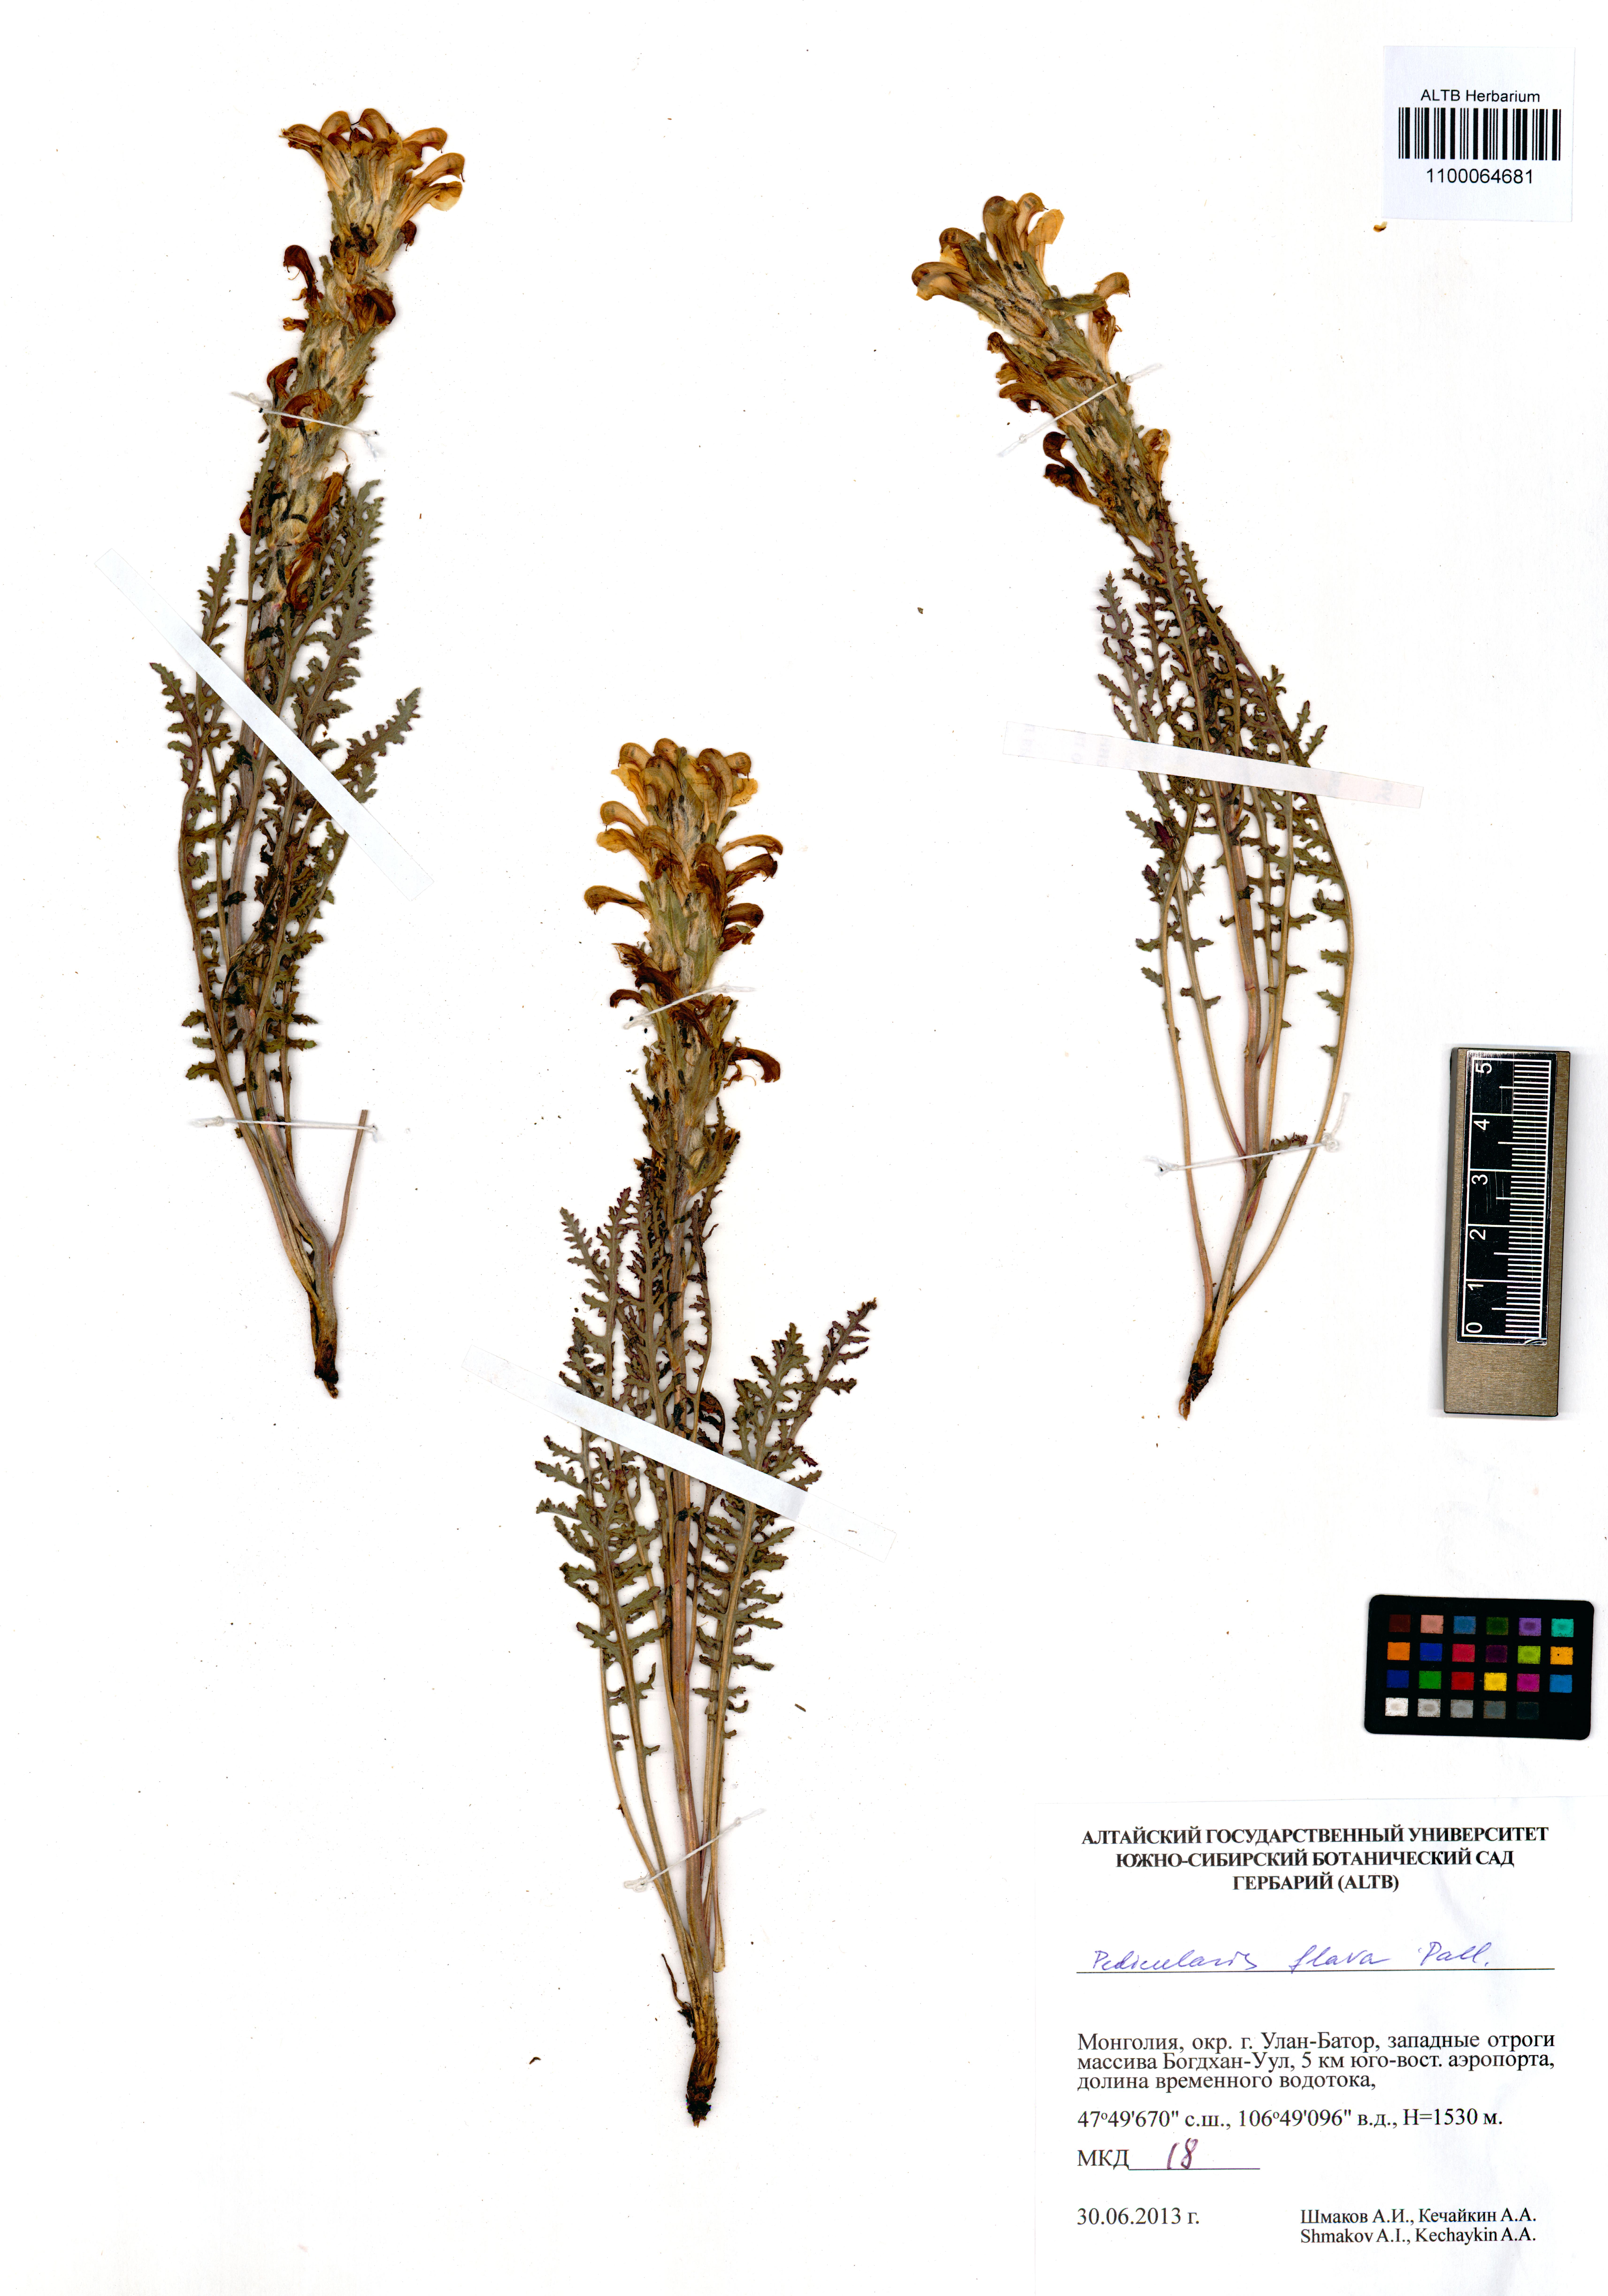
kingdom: Plantae
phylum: Tracheophyta
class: Magnoliopsida
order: Lamiales
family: Orobanchaceae
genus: Pedicularis
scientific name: Pedicularis flava
